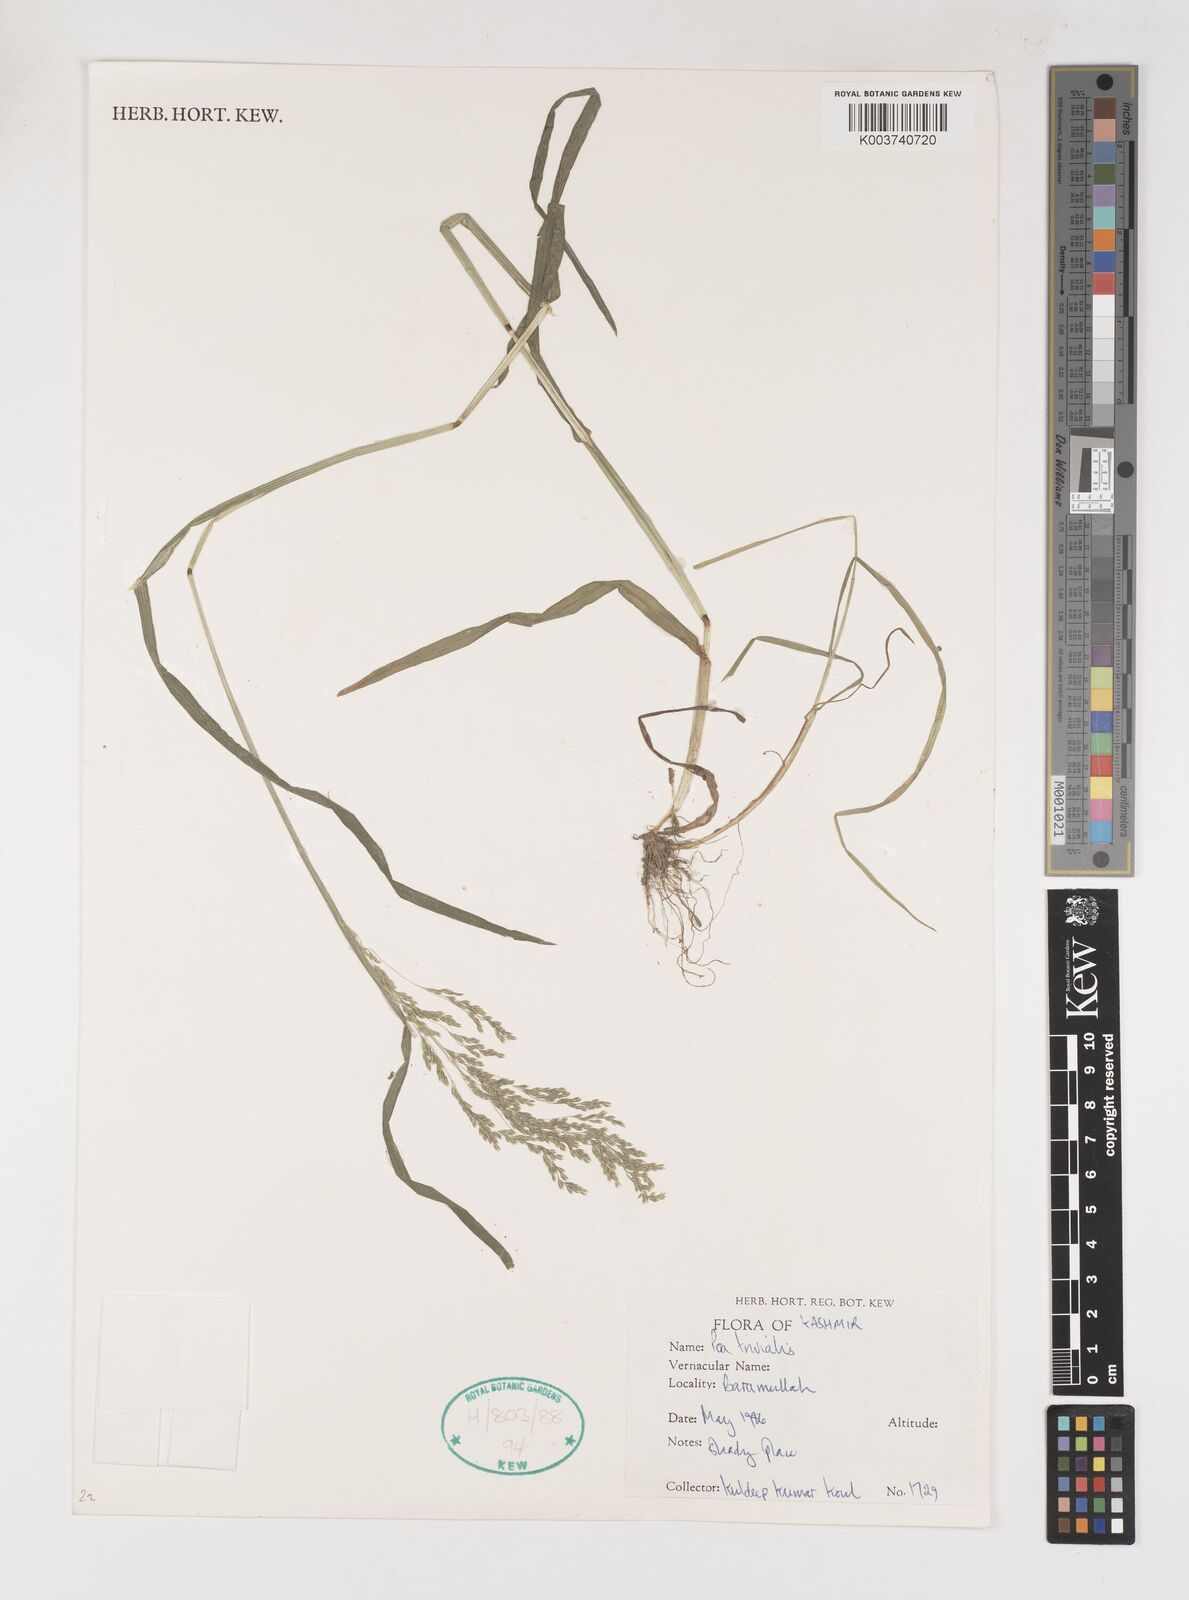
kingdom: Plantae
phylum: Tracheophyta
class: Liliopsida
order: Poales
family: Poaceae
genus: Poa
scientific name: Poa trivialis
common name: Rough bluegrass
